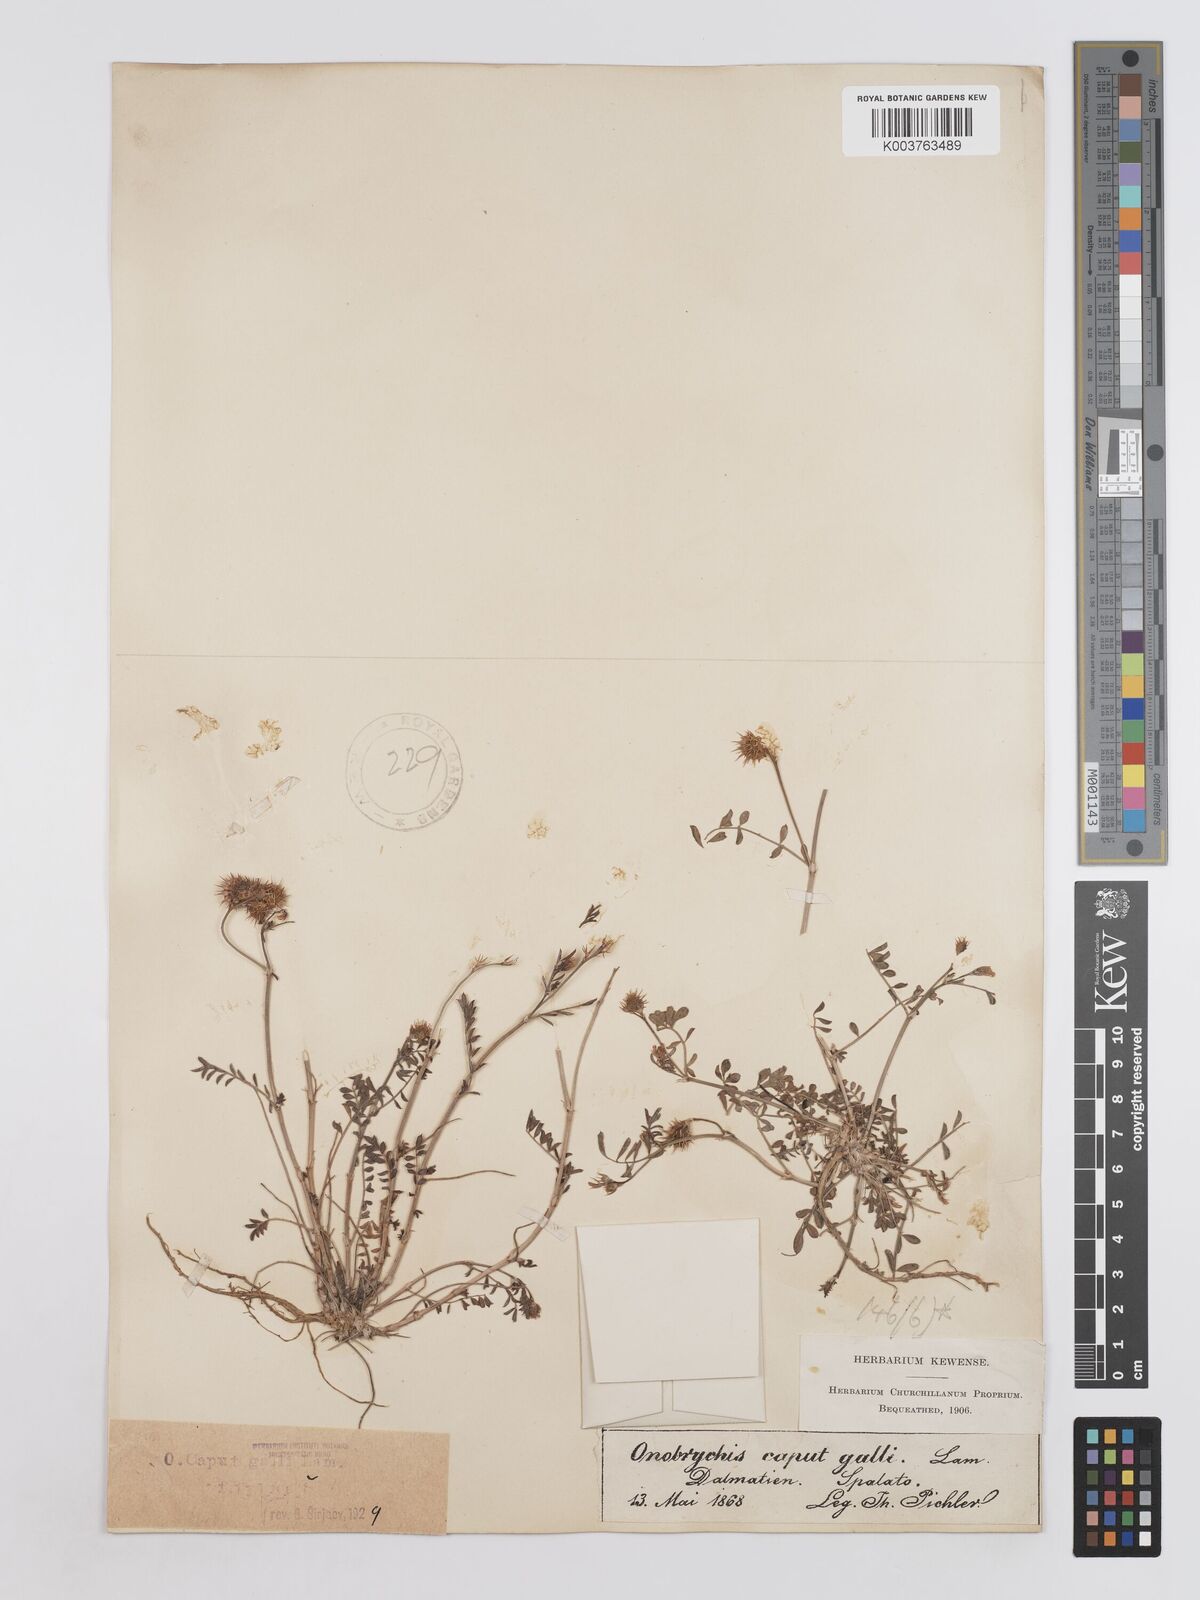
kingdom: Plantae
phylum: Tracheophyta
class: Magnoliopsida
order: Fabales
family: Fabaceae
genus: Onobrychis
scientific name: Onobrychis caput-galli
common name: Cockscomb sainfoin
